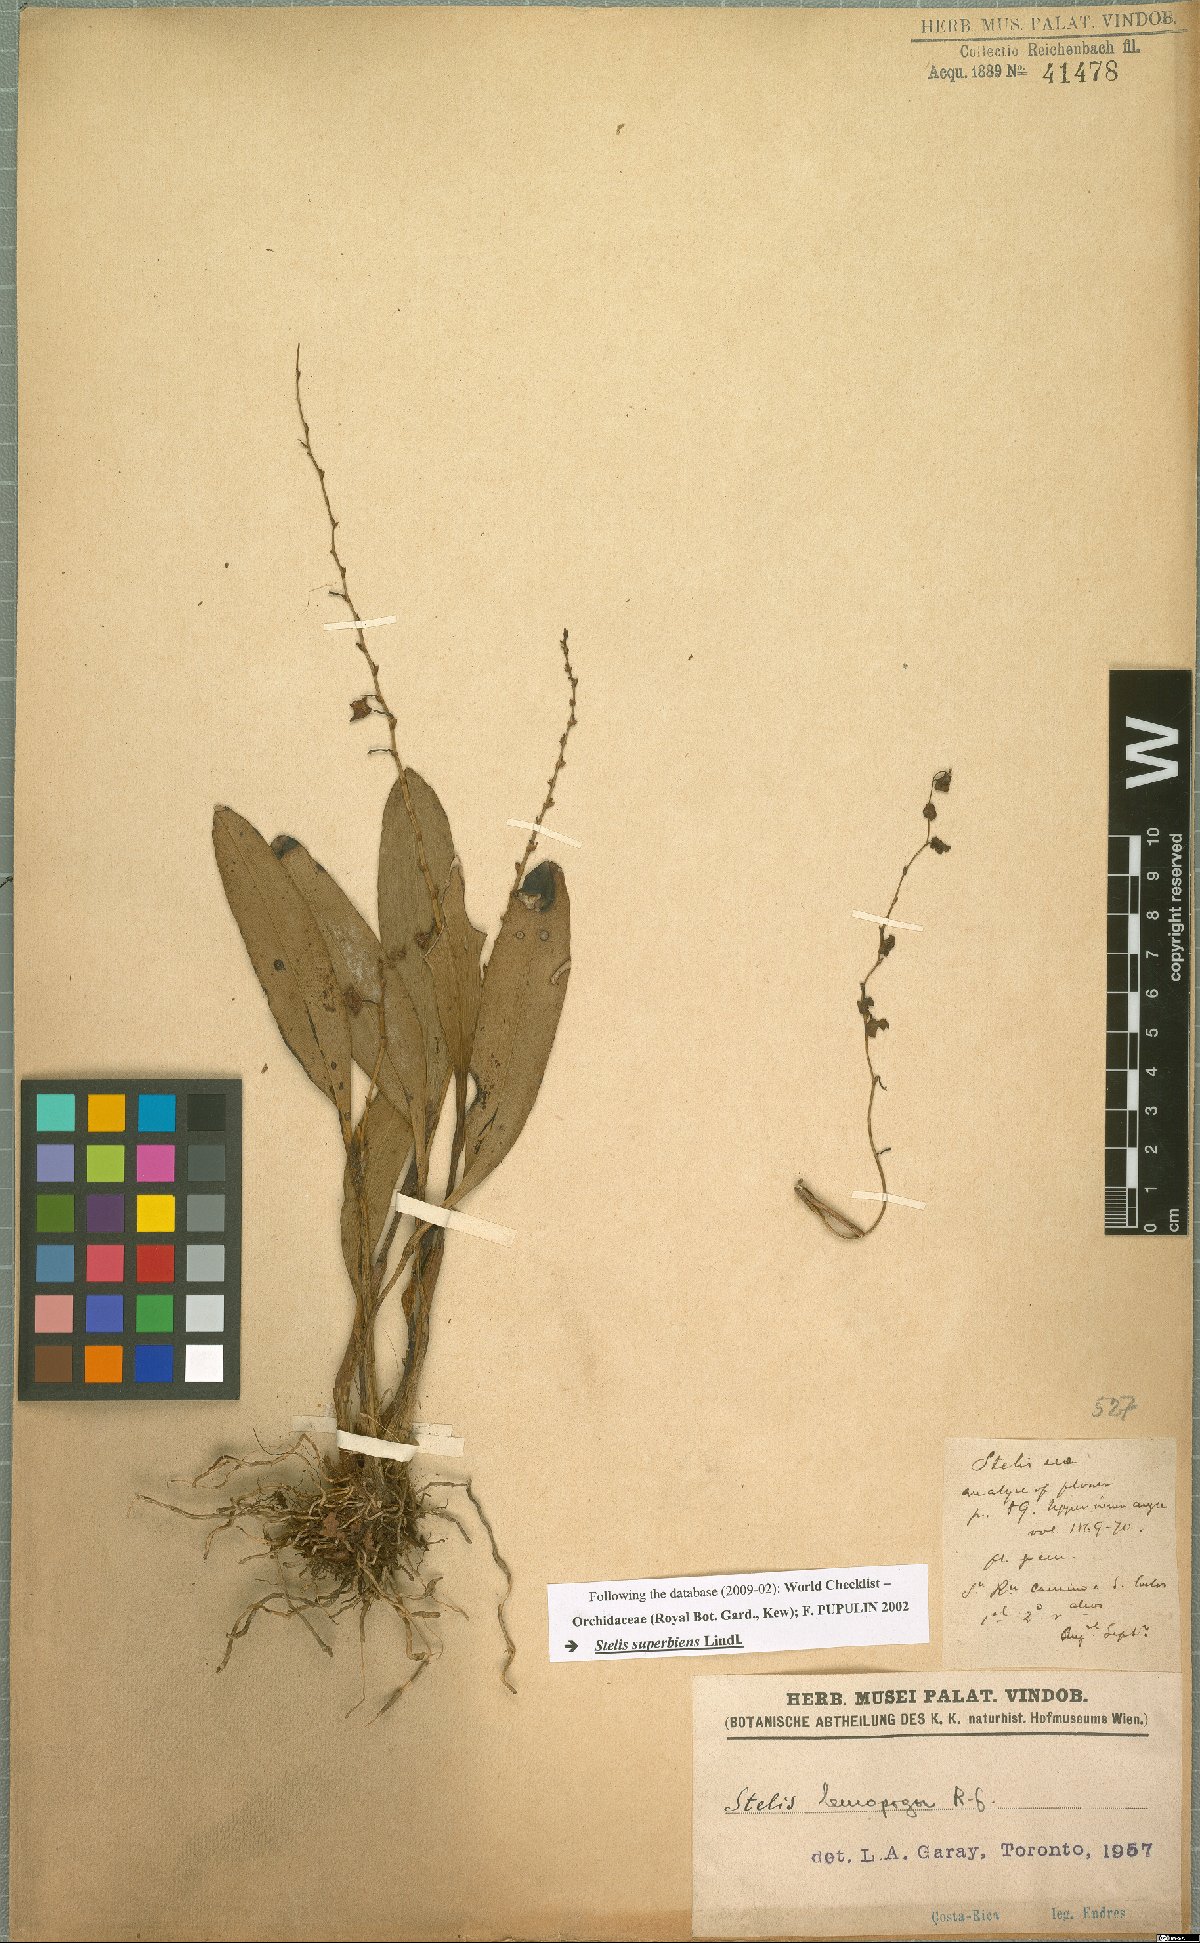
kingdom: Plantae
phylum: Tracheophyta
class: Liliopsida
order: Asparagales
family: Orchidaceae
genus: Stelis
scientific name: Stelis superbiens
